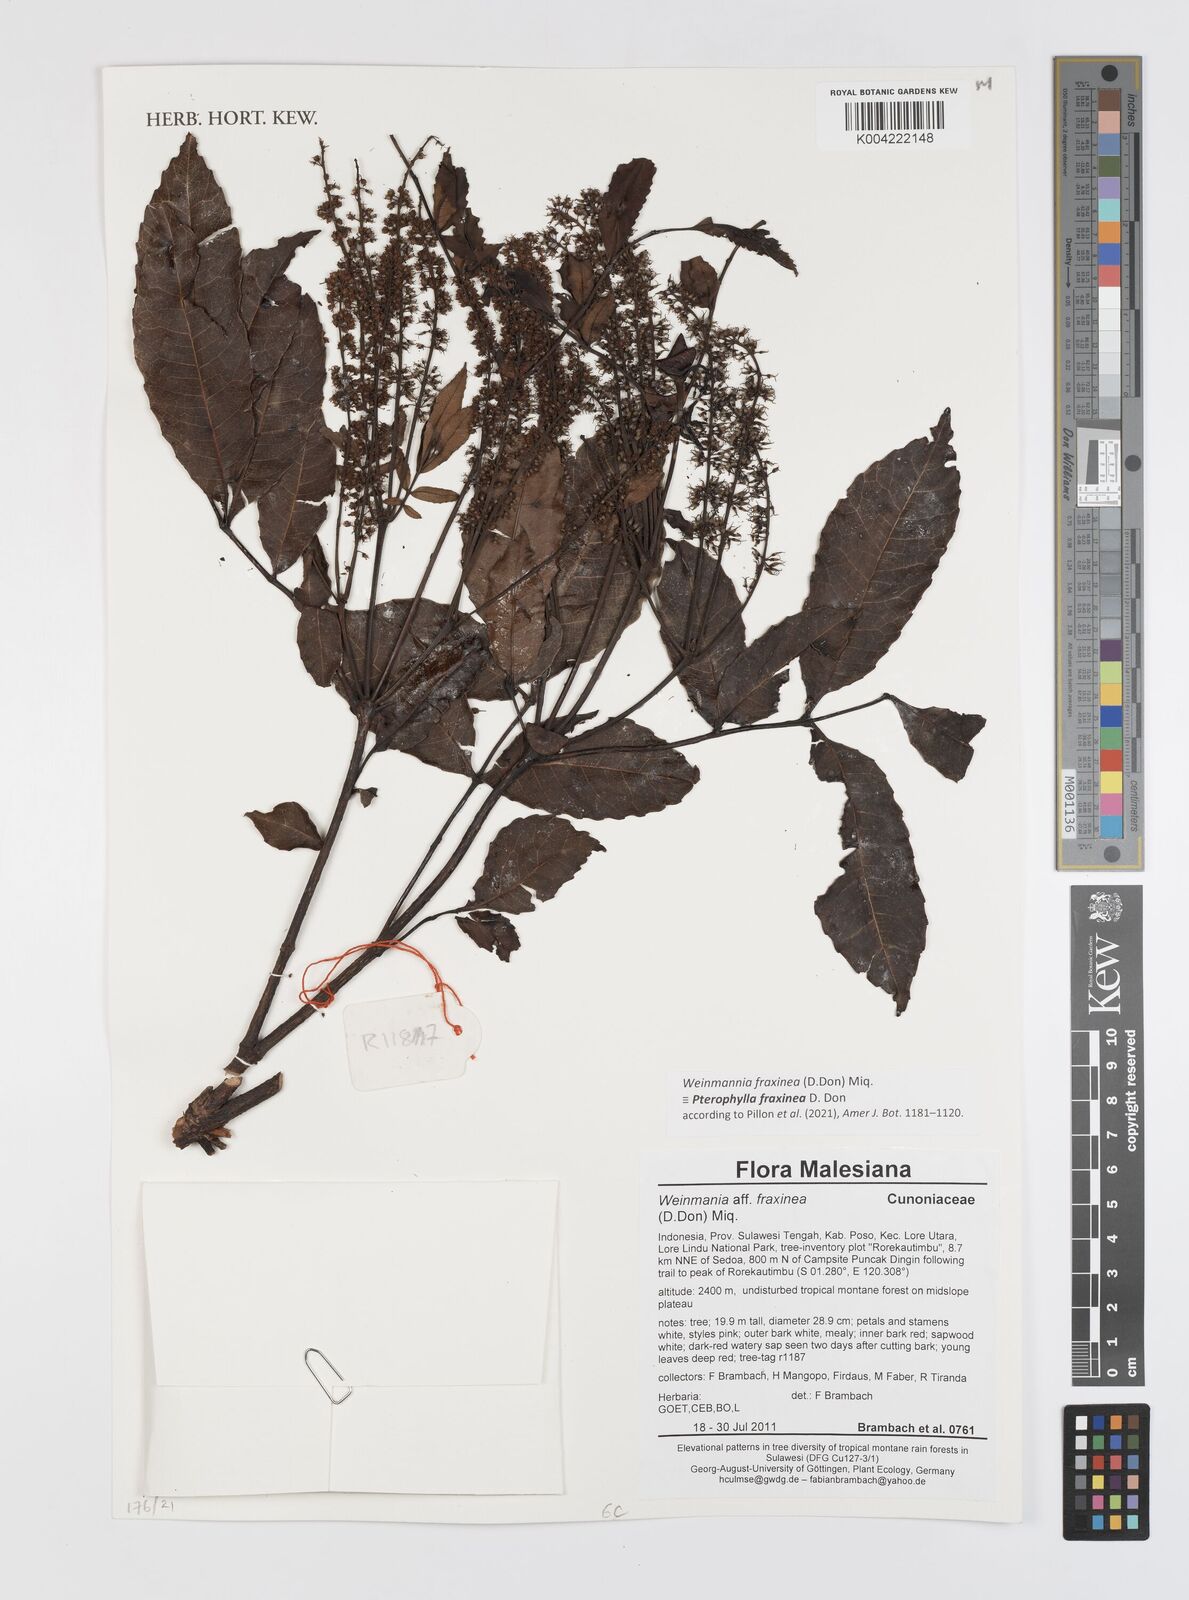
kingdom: Plantae
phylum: Tracheophyta
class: Magnoliopsida
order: Oxalidales
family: Cunoniaceae
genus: Pterophylla
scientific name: Pterophylla fraxinea
